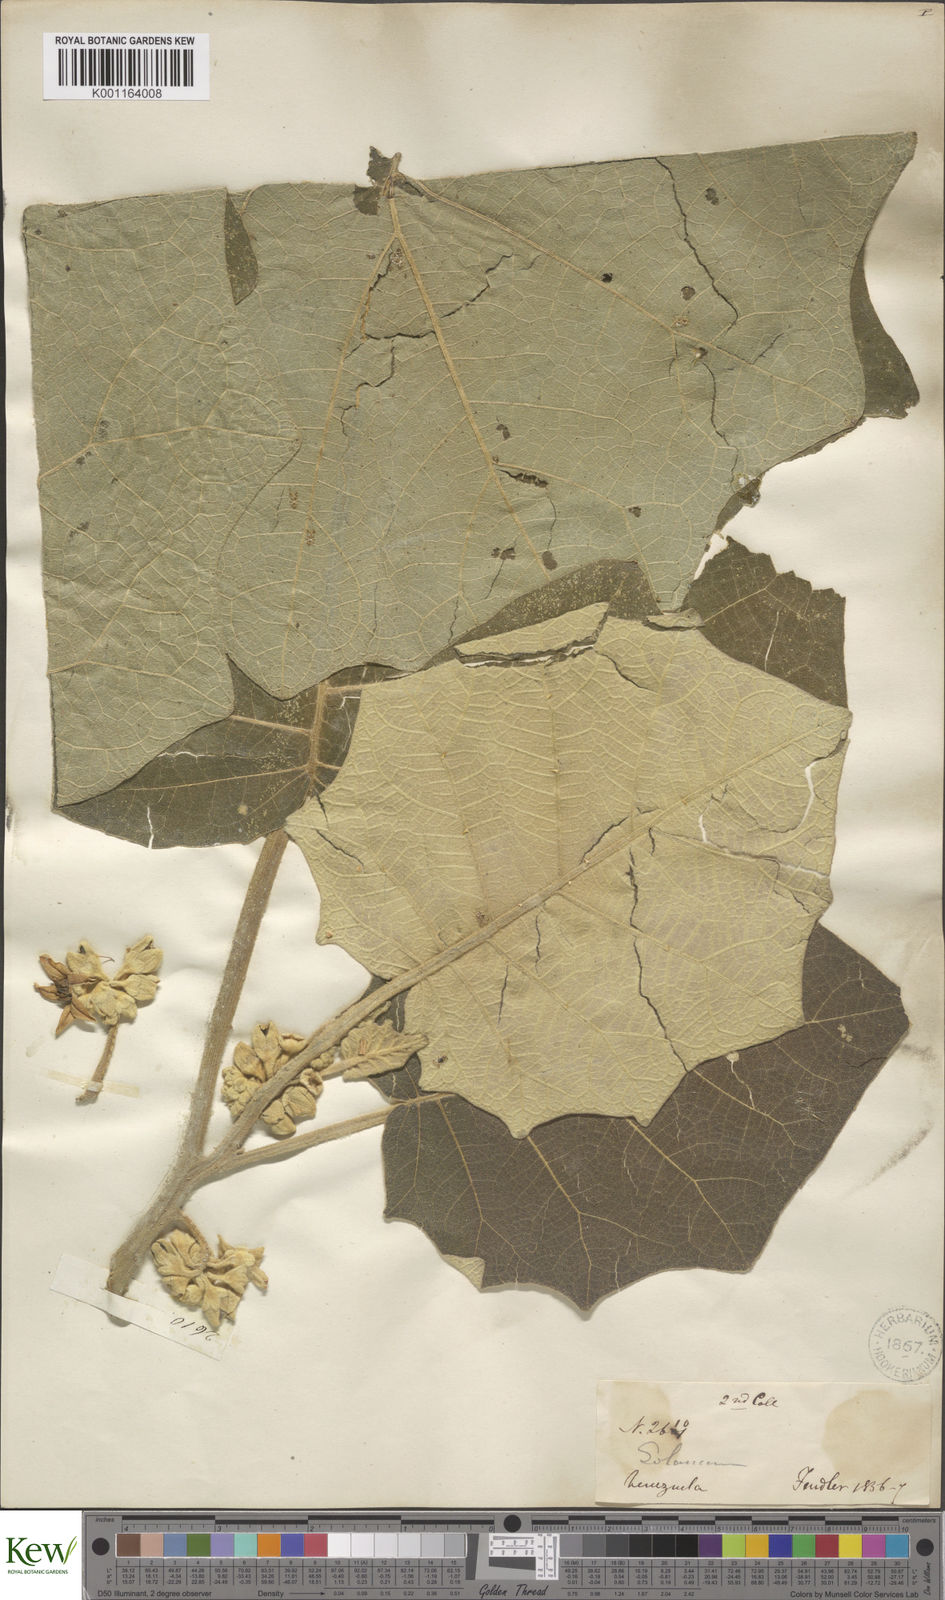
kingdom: Plantae
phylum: Tracheophyta
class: Magnoliopsida
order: Solanales
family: Solanaceae
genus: Solanum
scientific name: Solanum grandiflorum
